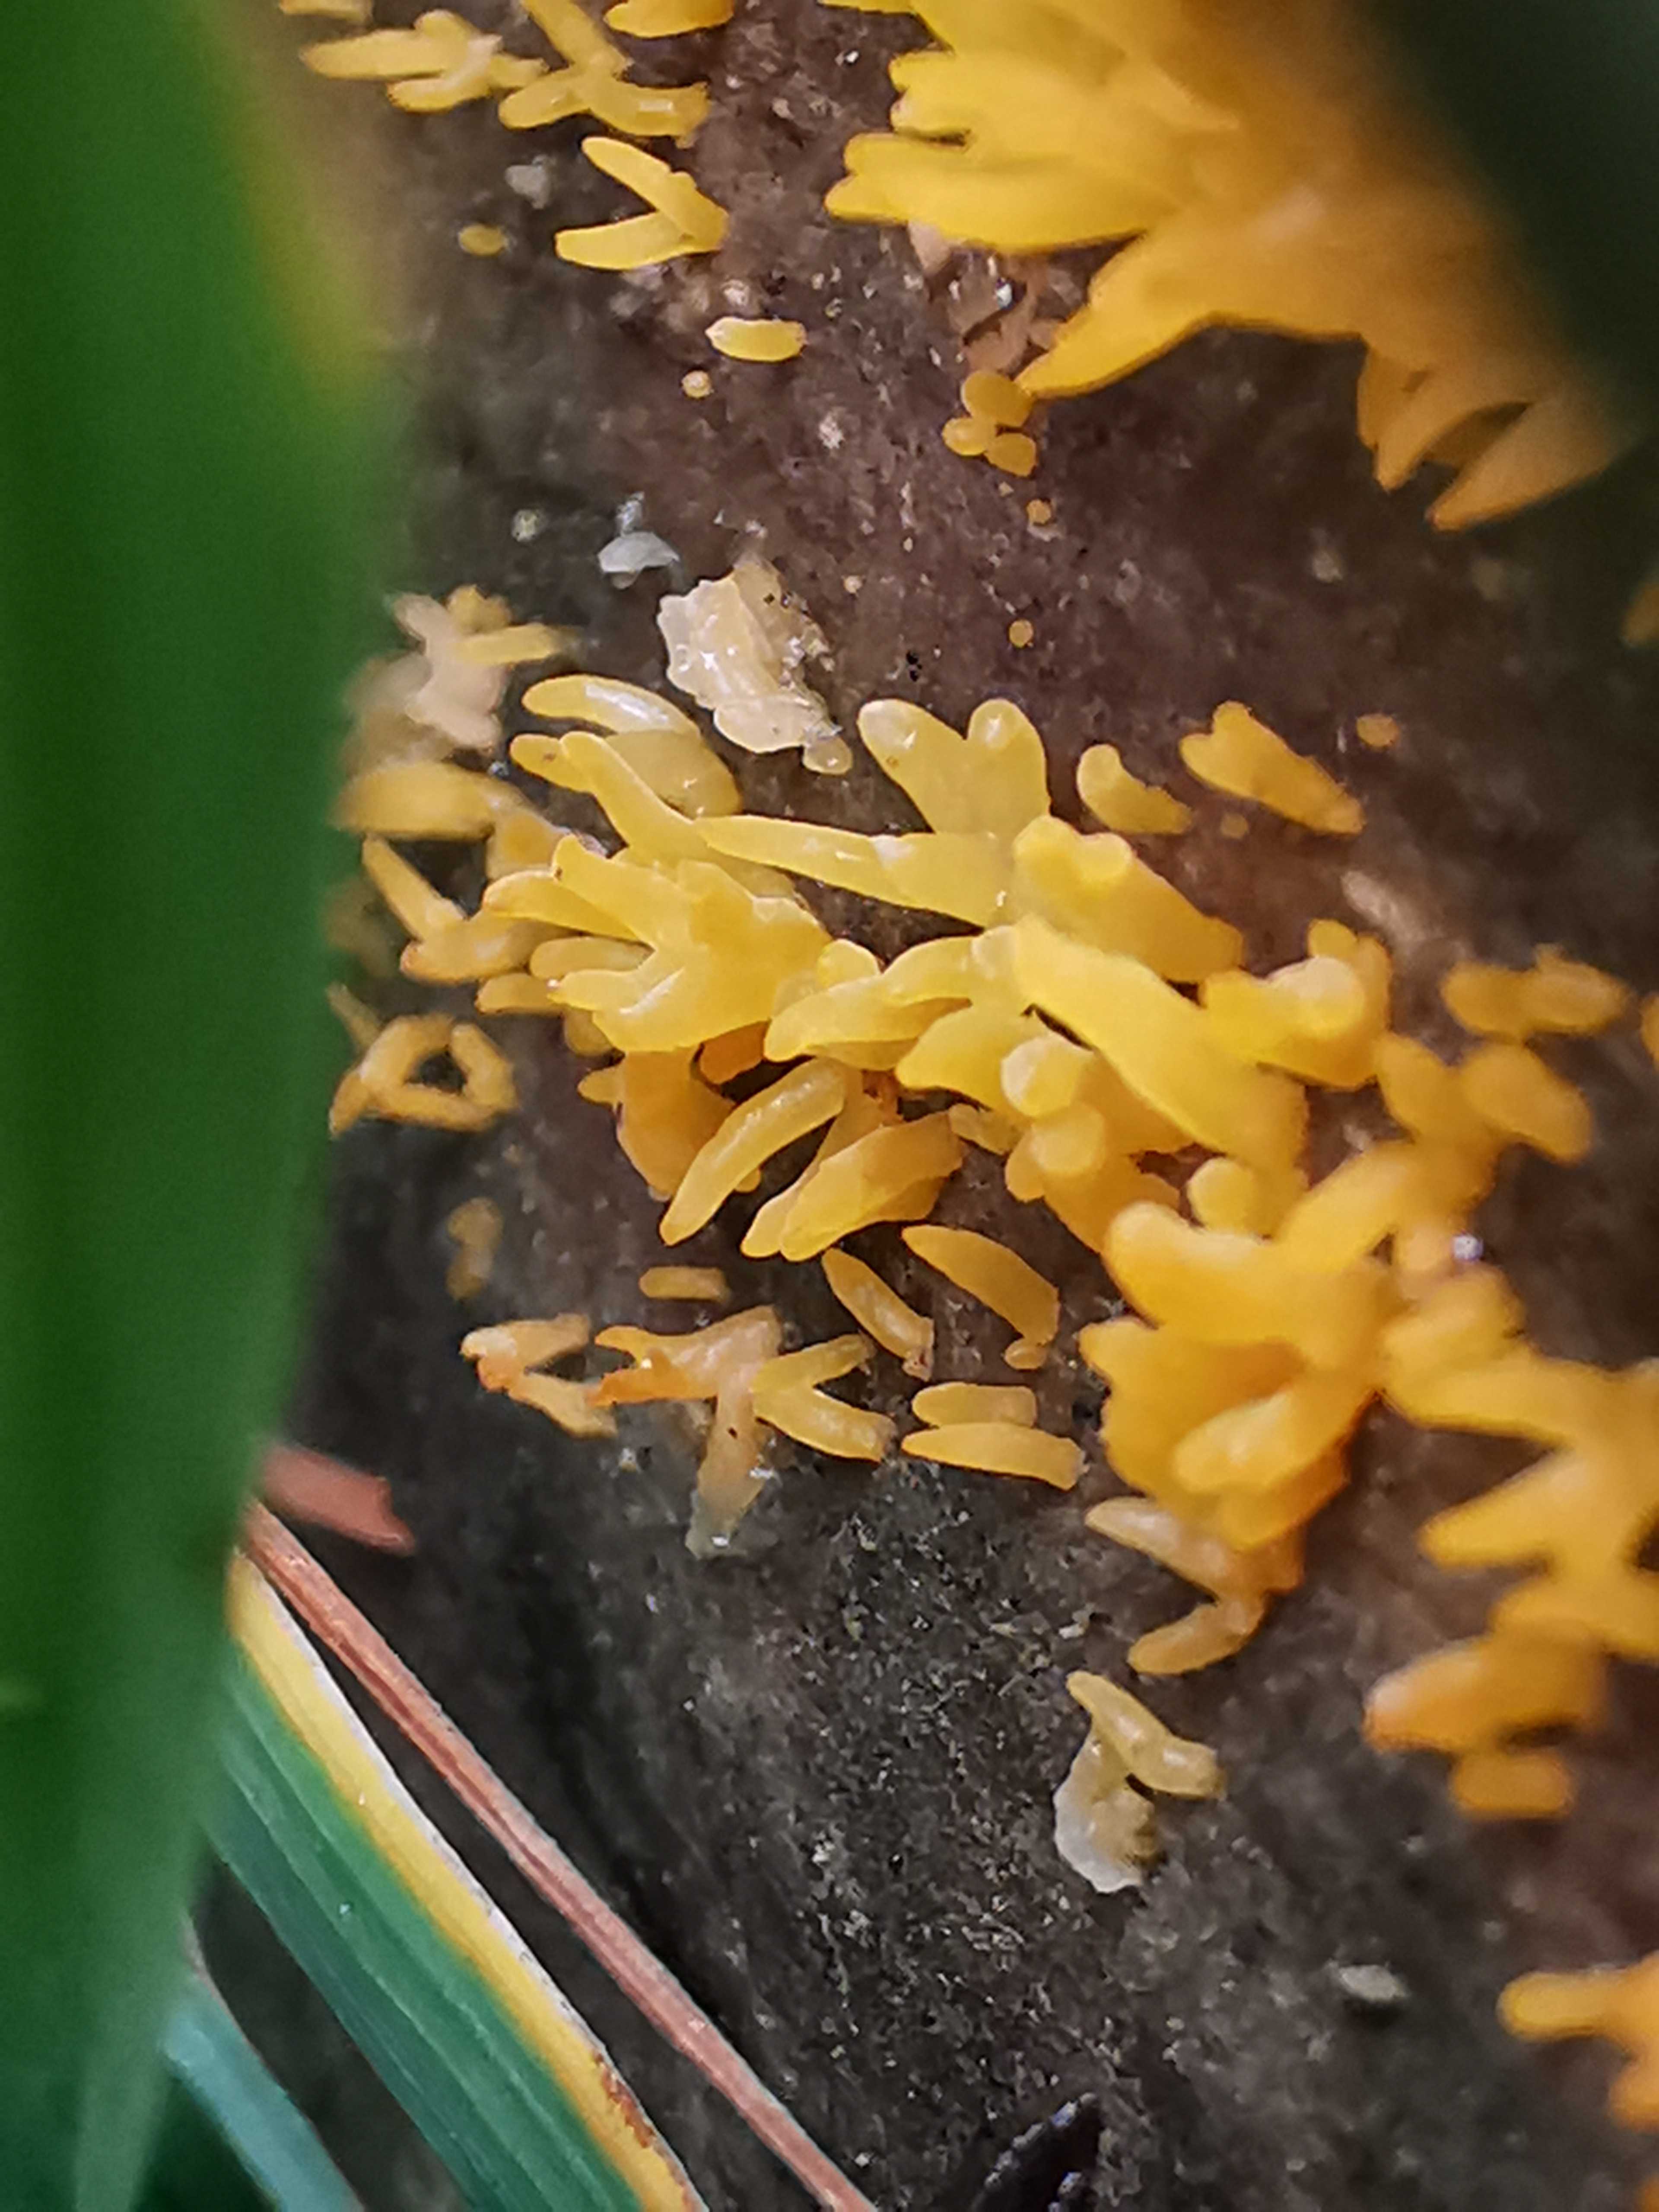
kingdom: Fungi
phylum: Basidiomycota
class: Dacrymycetes
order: Dacrymycetales
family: Dacrymycetaceae
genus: Calocera
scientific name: Calocera cornea
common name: liden guldgaffel
